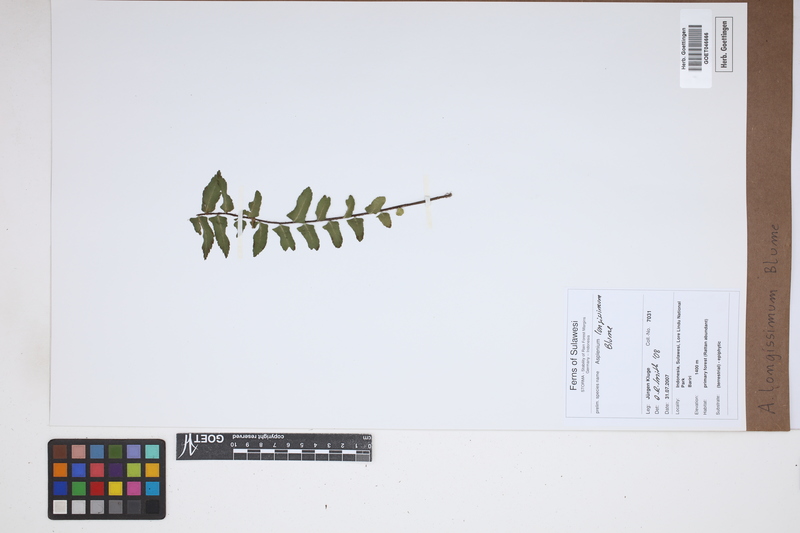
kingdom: Plantae
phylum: Tracheophyta
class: Polypodiopsida
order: Polypodiales
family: Aspleniaceae
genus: Asplenium
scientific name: Asplenium longissimum
